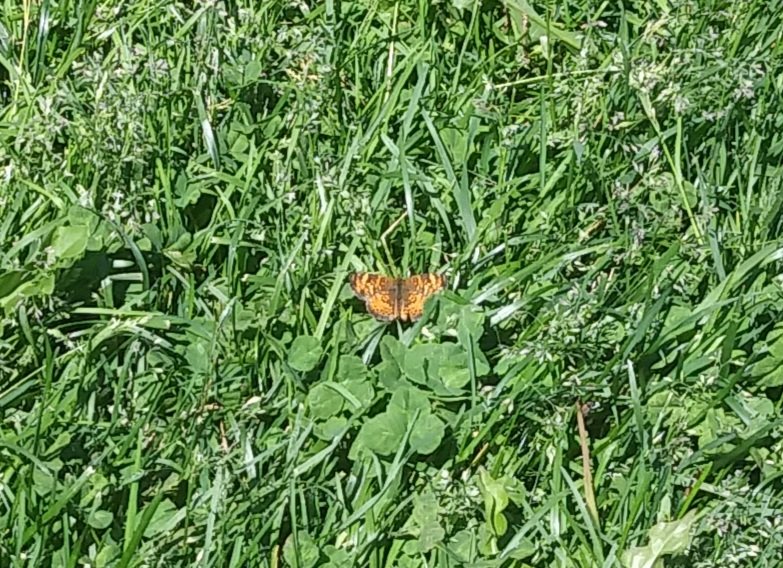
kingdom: Animalia
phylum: Arthropoda
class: Insecta
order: Lepidoptera
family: Nymphalidae
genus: Phyciodes
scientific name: Phyciodes tharos
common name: Northern Crescent
